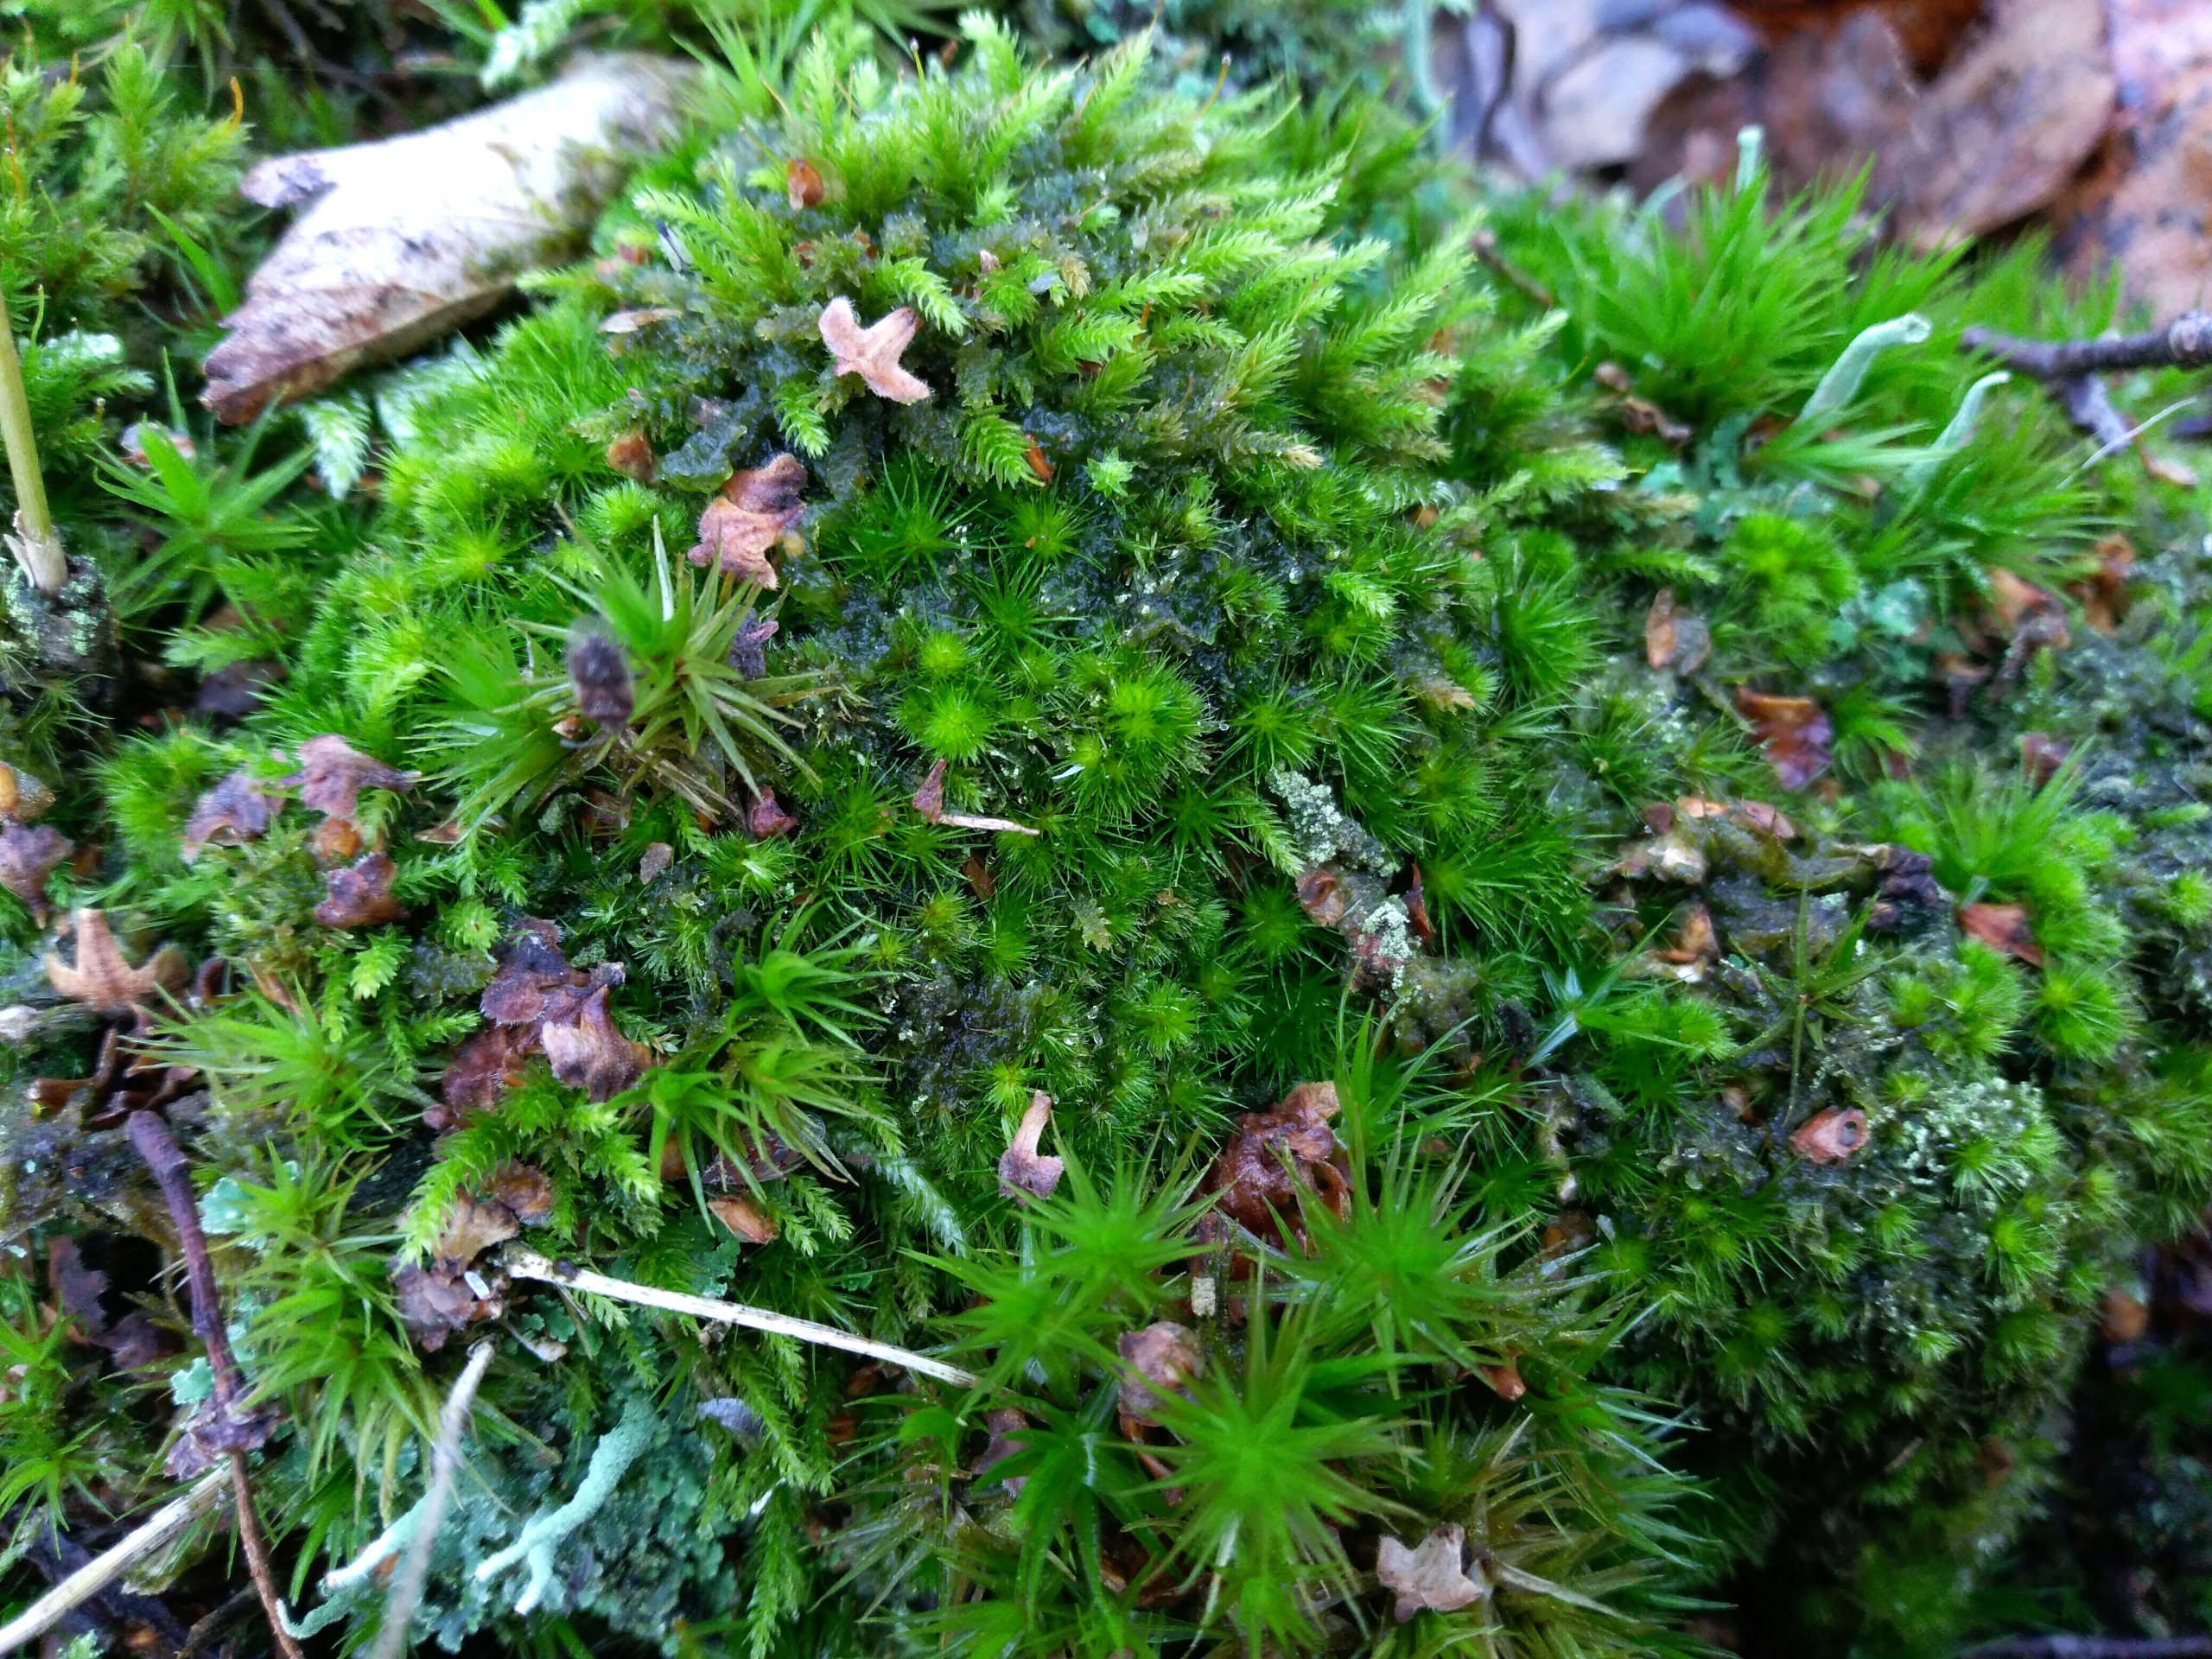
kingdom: Plantae
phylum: Bryophyta
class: Bryopsida
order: Dicranales
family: Leucobryaceae
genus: Campylopus
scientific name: Campylopus fragilis
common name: Skør bredribbe
